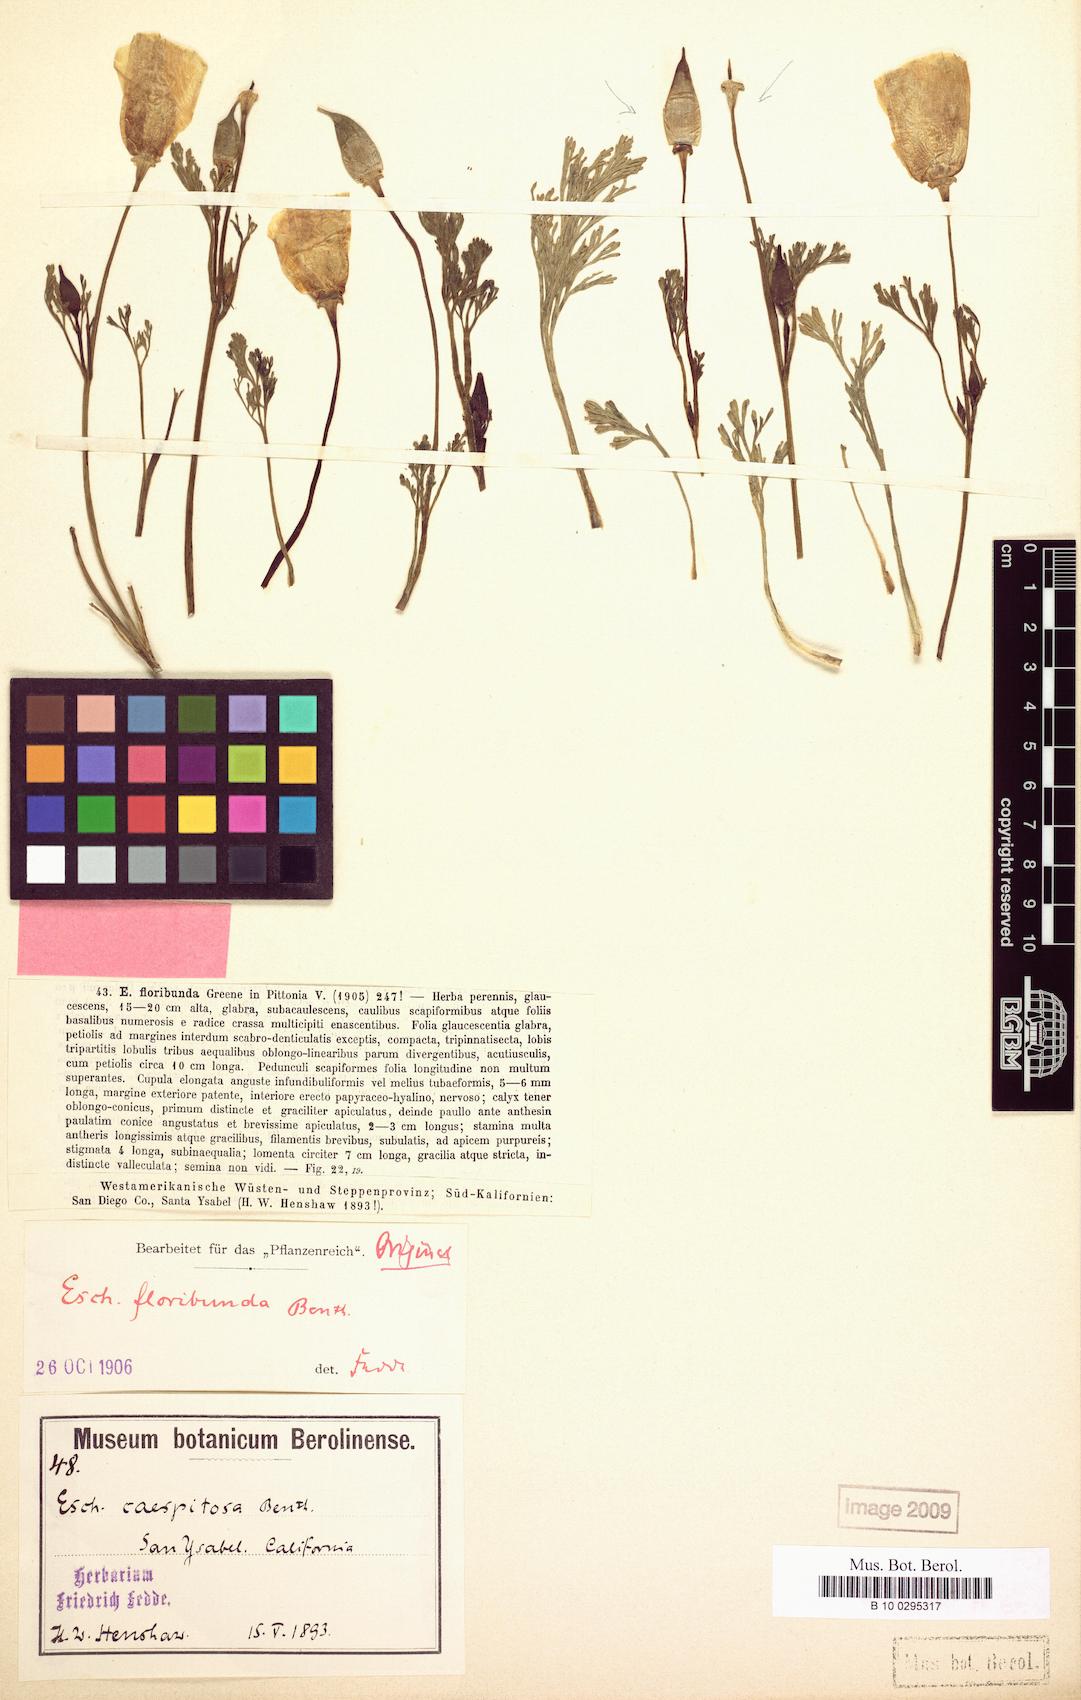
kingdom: Plantae
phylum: Tracheophyta
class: Magnoliopsida
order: Ranunculales
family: Papaveraceae
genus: Eschscholzia
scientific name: Eschscholzia californica
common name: California poppy
